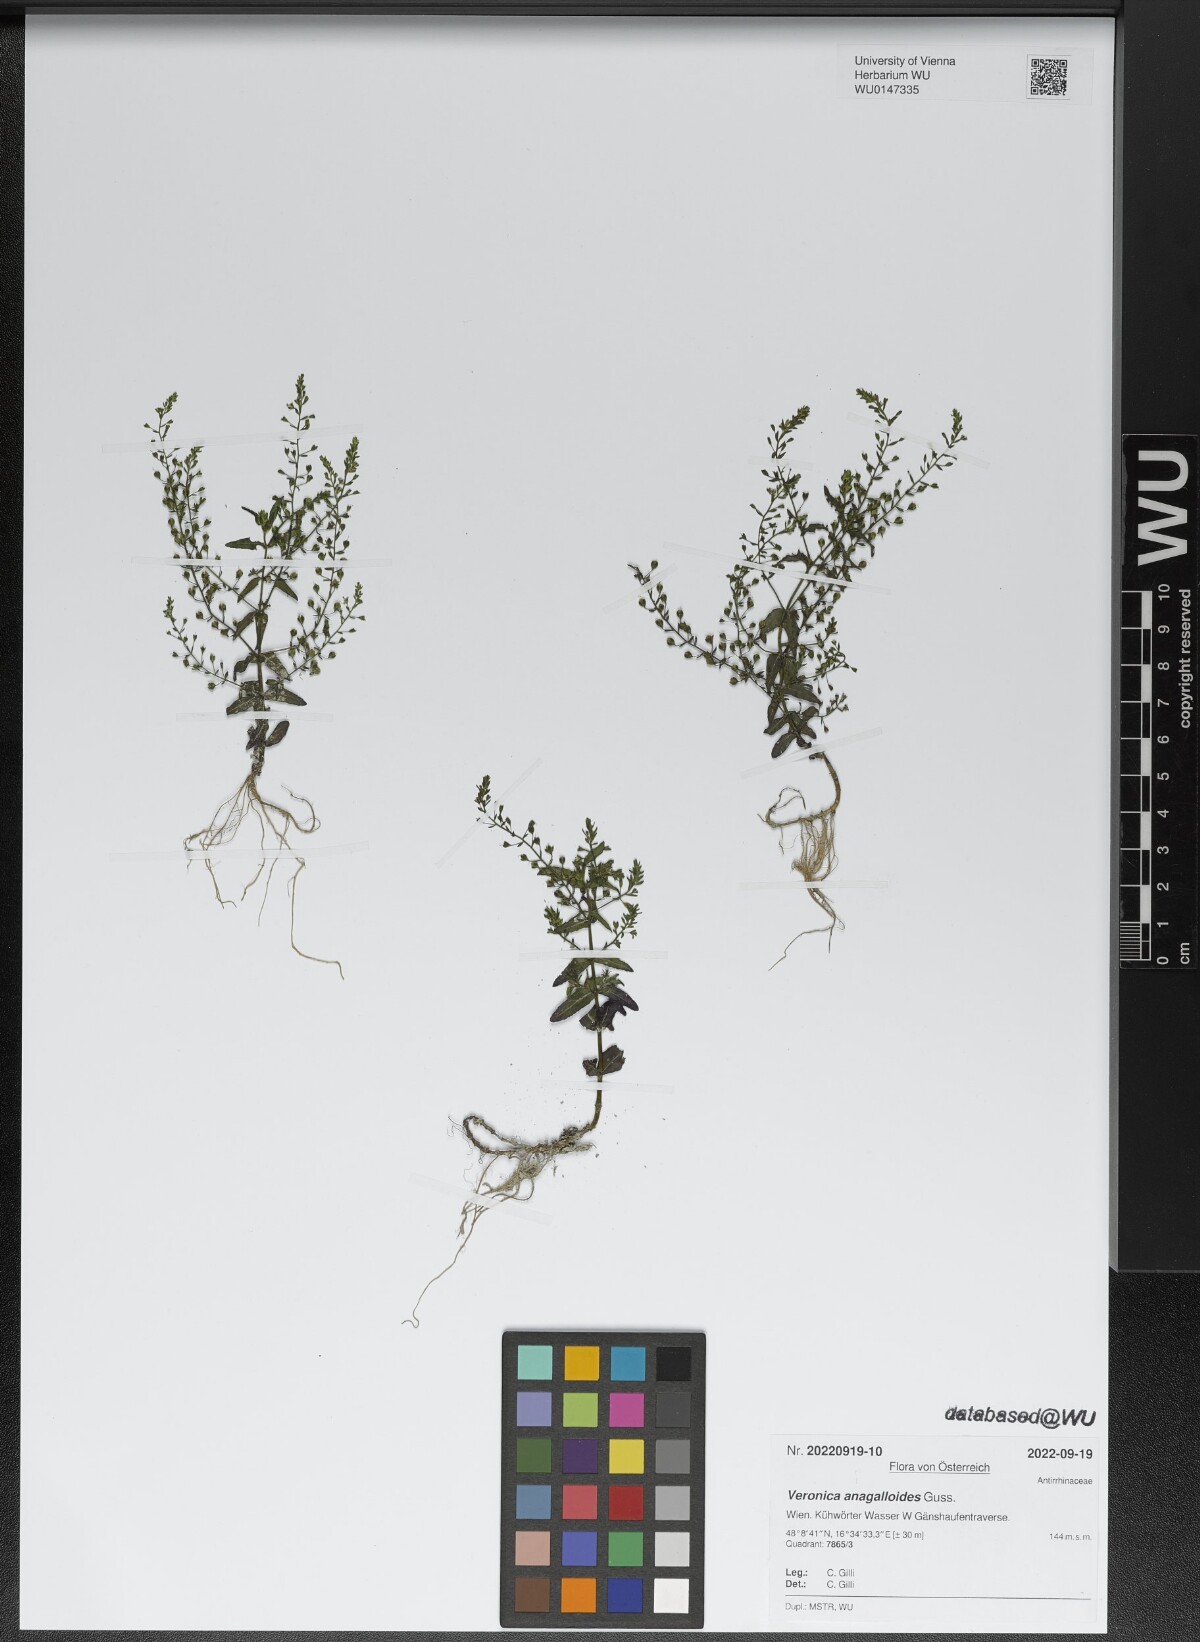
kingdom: Plantae
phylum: Tracheophyta
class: Magnoliopsida
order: Lamiales
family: Plantaginaceae
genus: Veronica
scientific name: Veronica anagalloides
